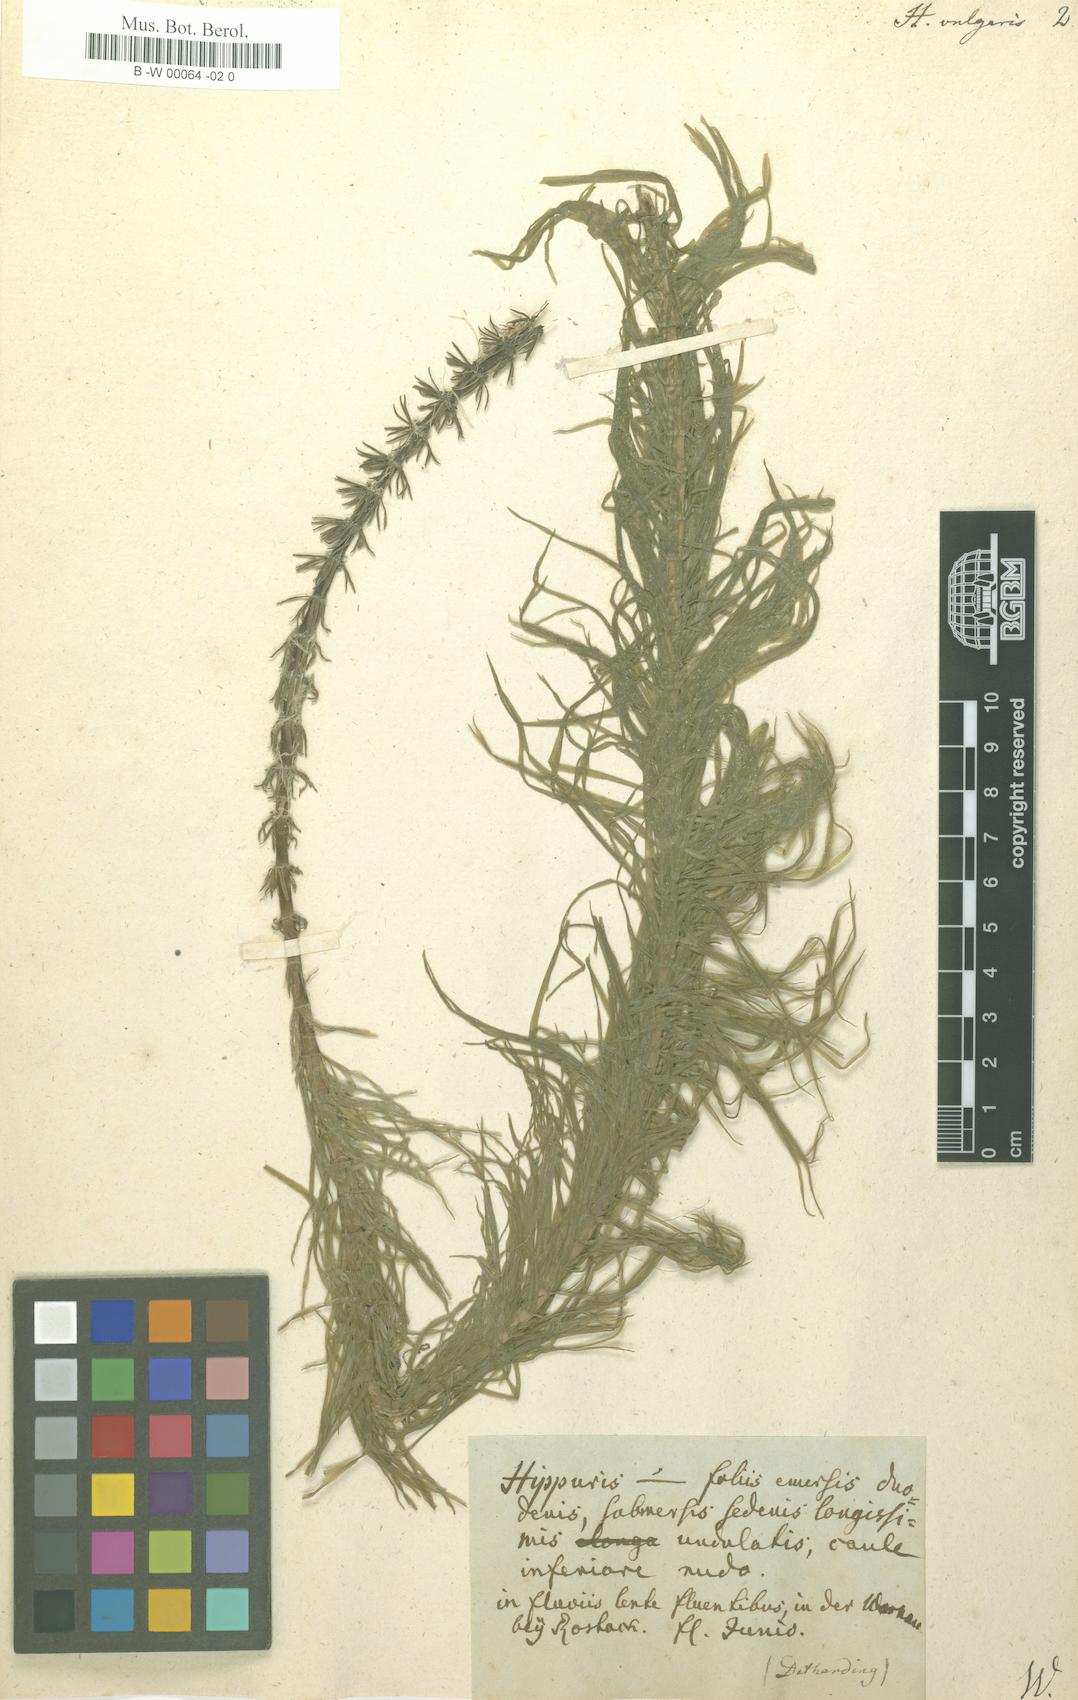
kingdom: Plantae
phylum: Tracheophyta
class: Magnoliopsida
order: Lamiales
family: Plantaginaceae
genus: Hippuris
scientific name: Hippuris vulgaris
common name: Mare's-tail
